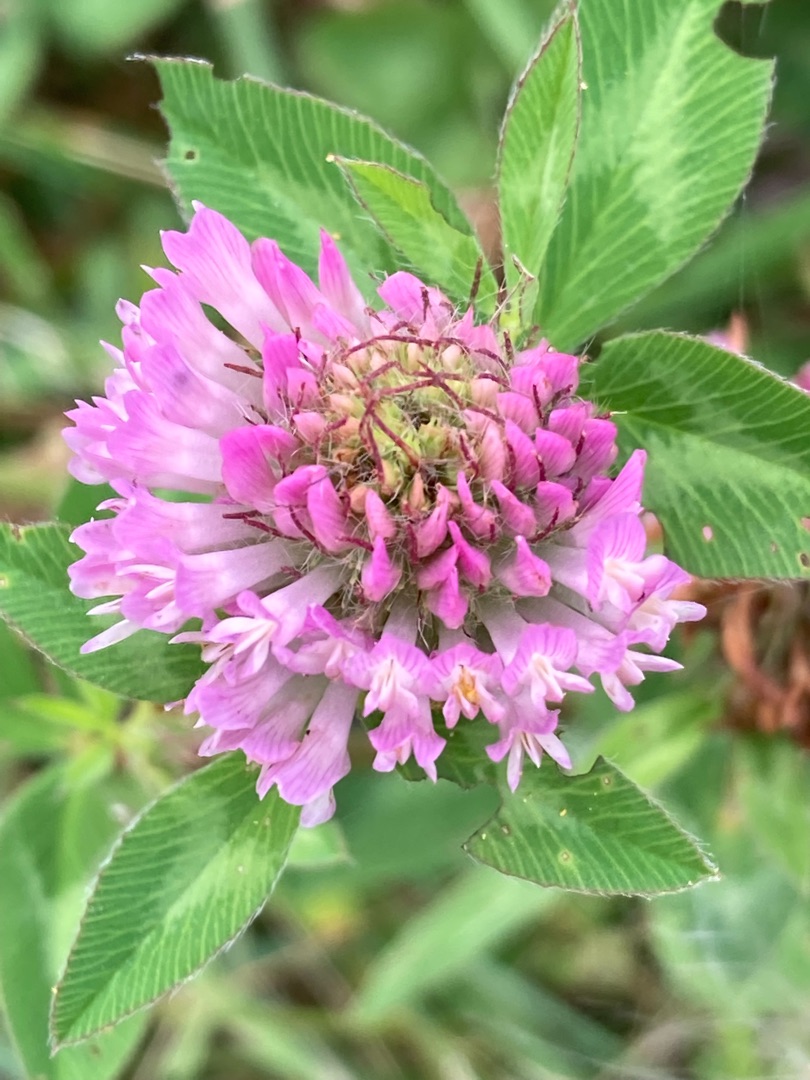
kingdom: Plantae
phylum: Tracheophyta
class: Magnoliopsida
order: Fabales
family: Fabaceae
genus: Trifolium
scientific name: Trifolium pratense
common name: Rød-kløver
